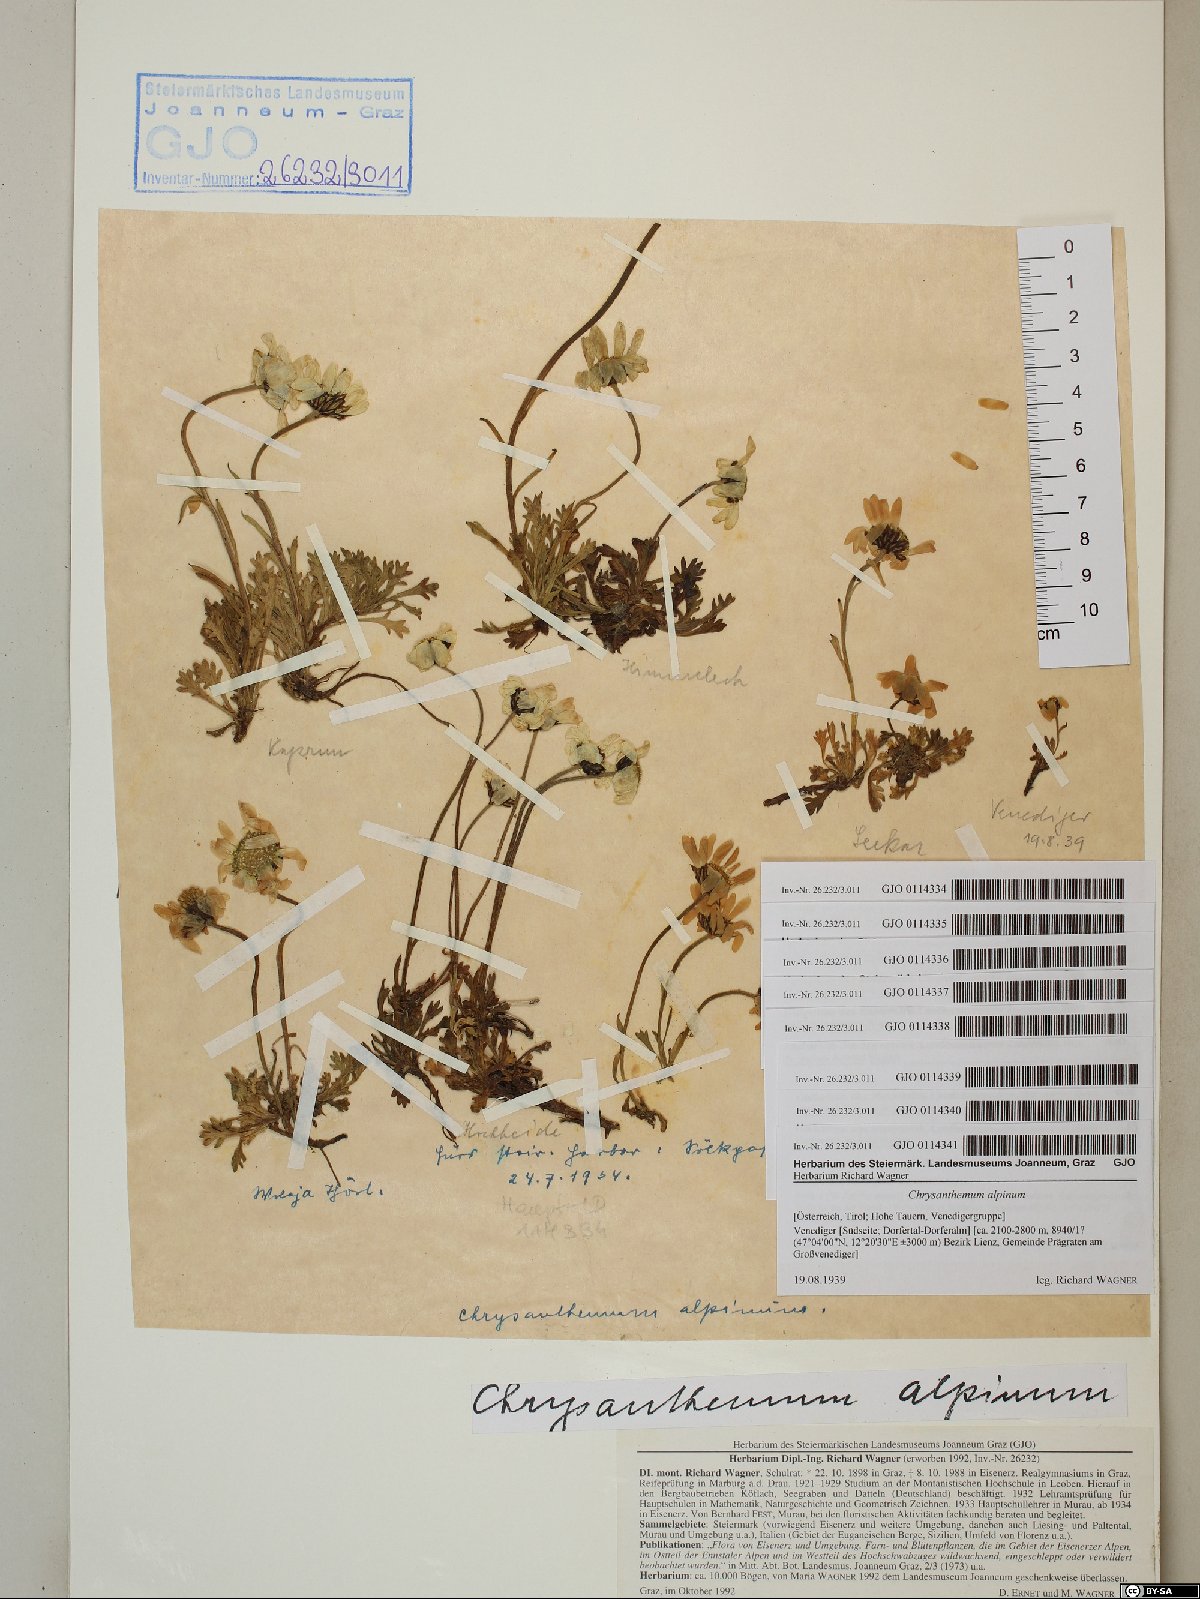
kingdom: Plantae
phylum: Tracheophyta
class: Magnoliopsida
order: Asterales
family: Asteraceae
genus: Leucanthemopsis
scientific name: Leucanthemopsis alpina
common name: Alpine moon daisy
